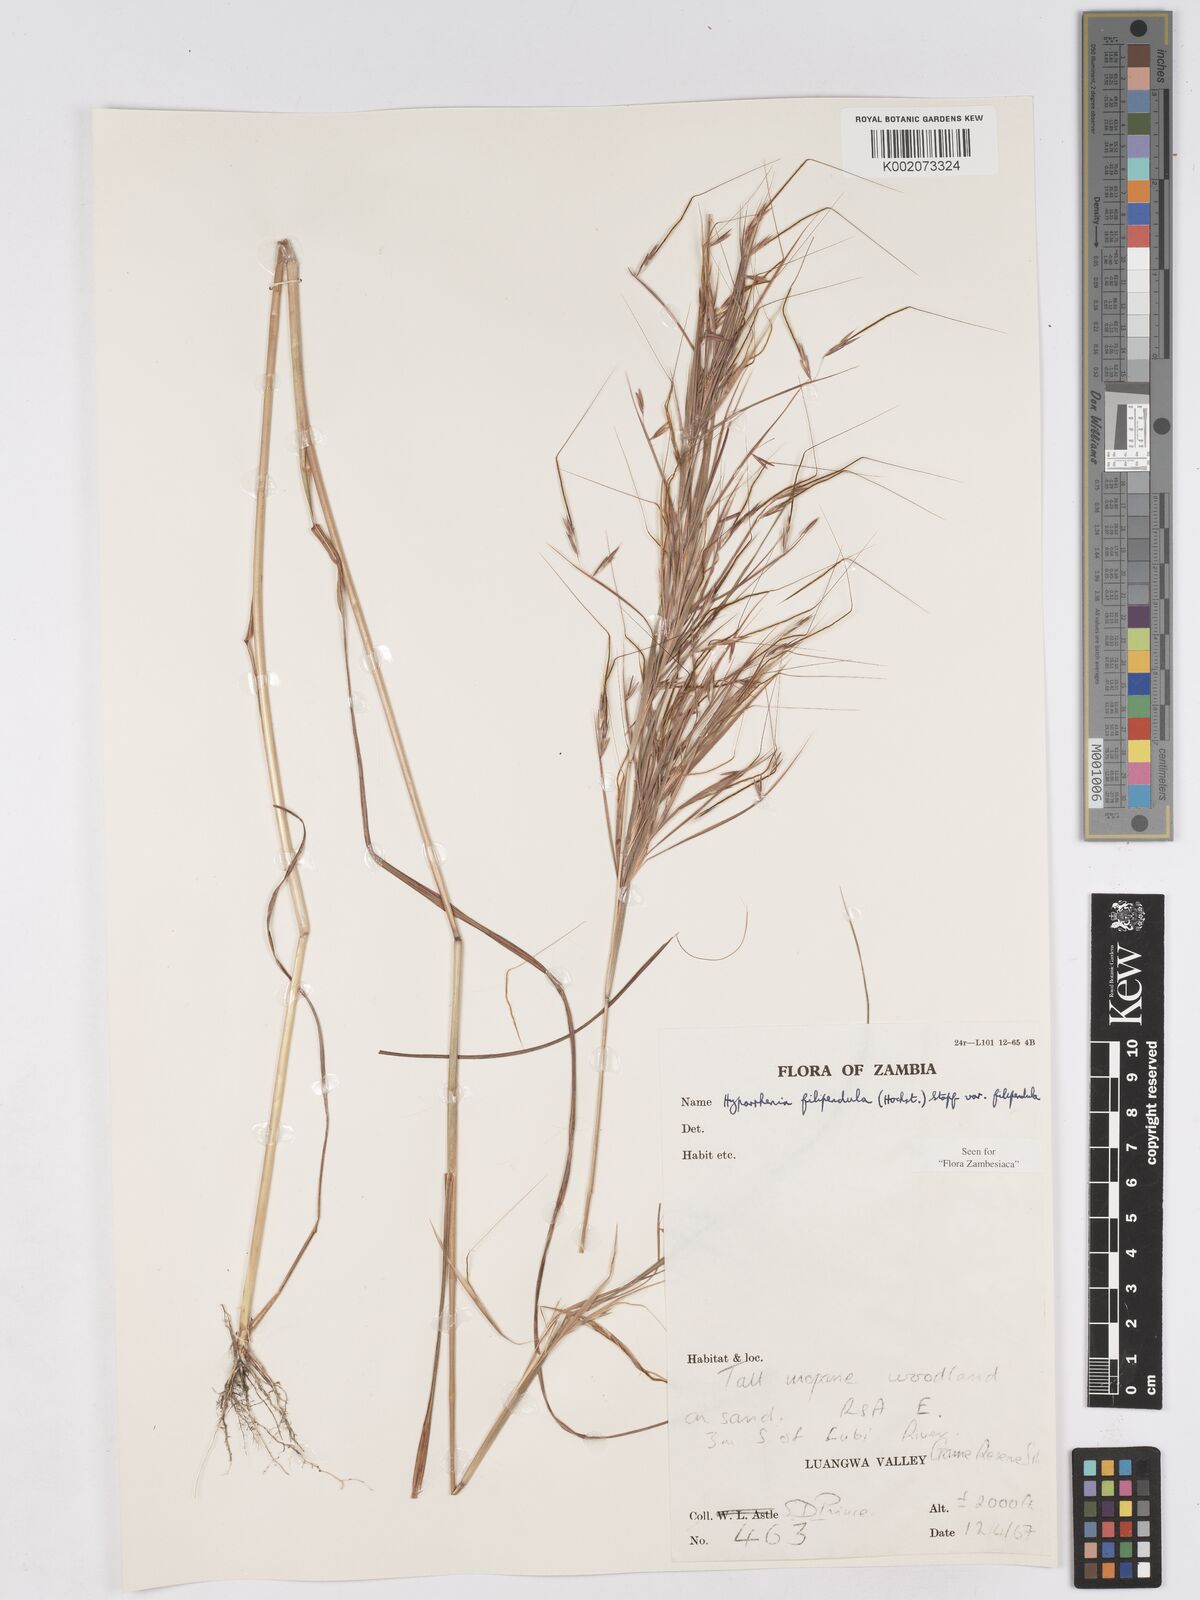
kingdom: Plantae
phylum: Tracheophyta
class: Liliopsida
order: Poales
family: Poaceae
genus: Hyparrhenia
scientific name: Hyparrhenia filipendula
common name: Tambookie grass
